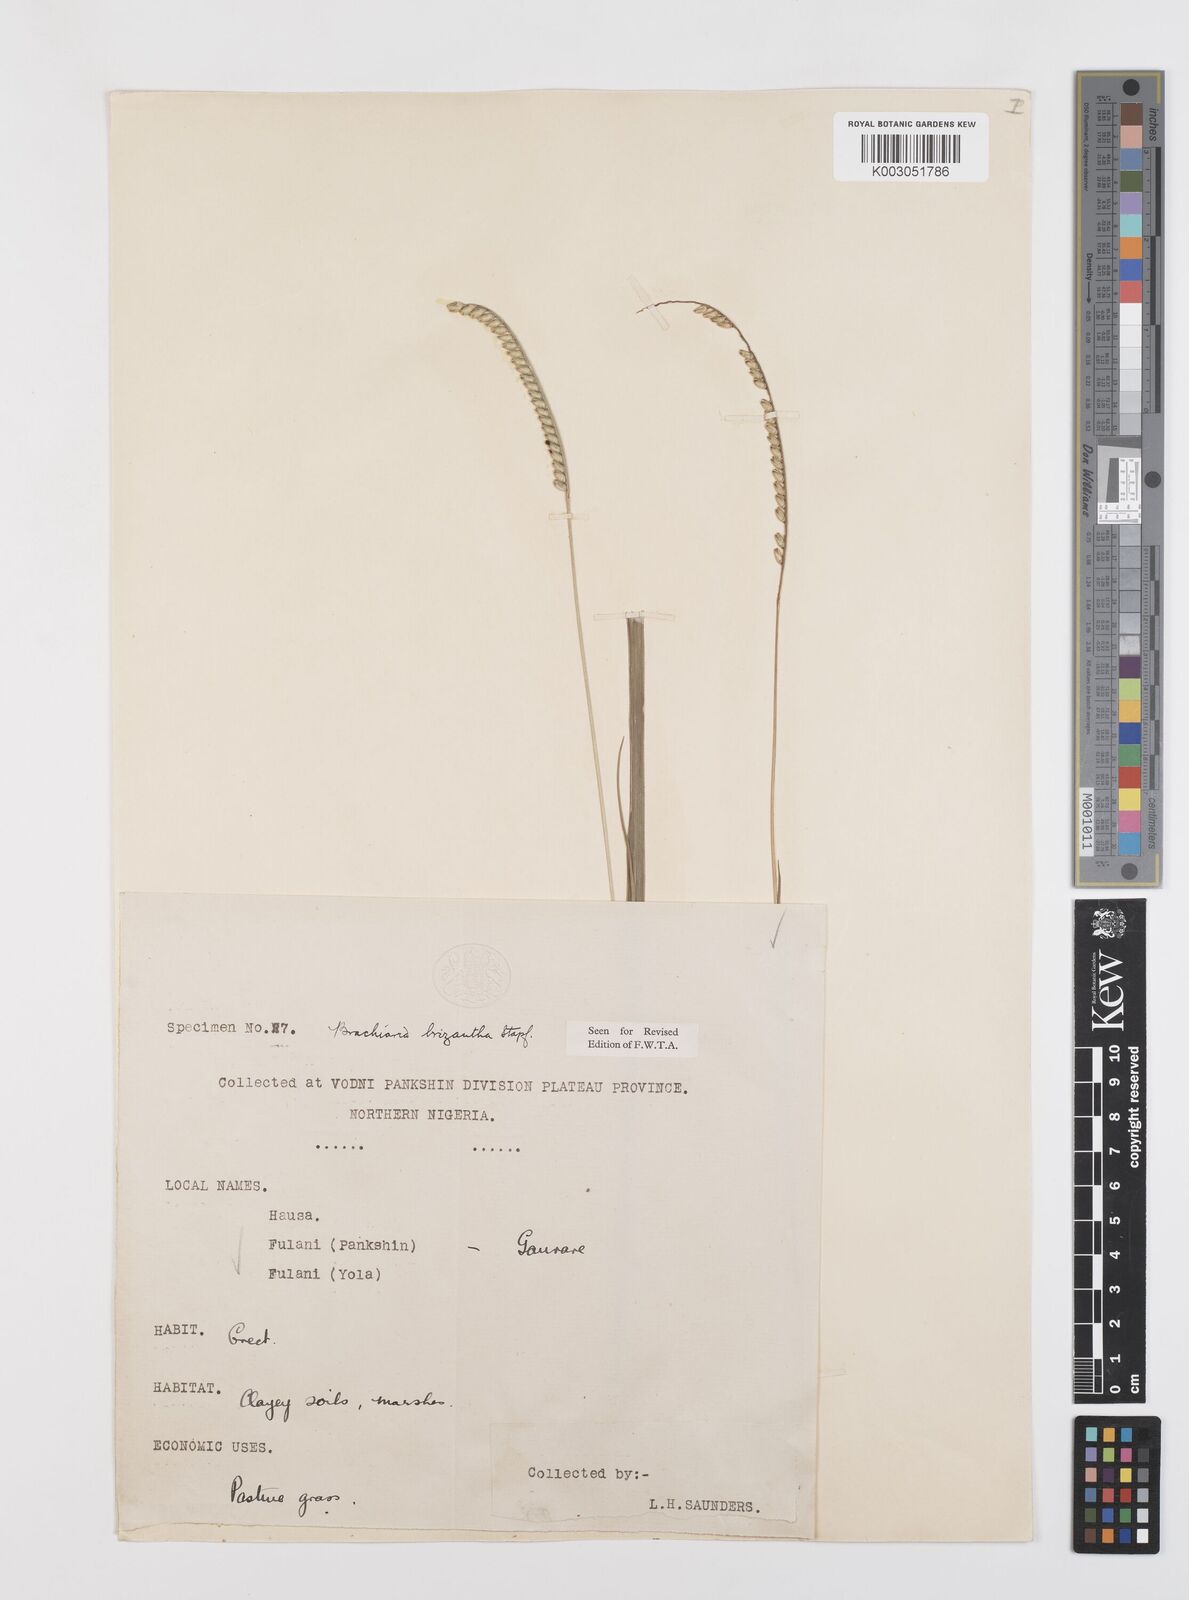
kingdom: Plantae
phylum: Tracheophyta
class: Liliopsida
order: Poales
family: Poaceae
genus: Urochloa
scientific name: Urochloa brizantha
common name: Palisade signalgrass
